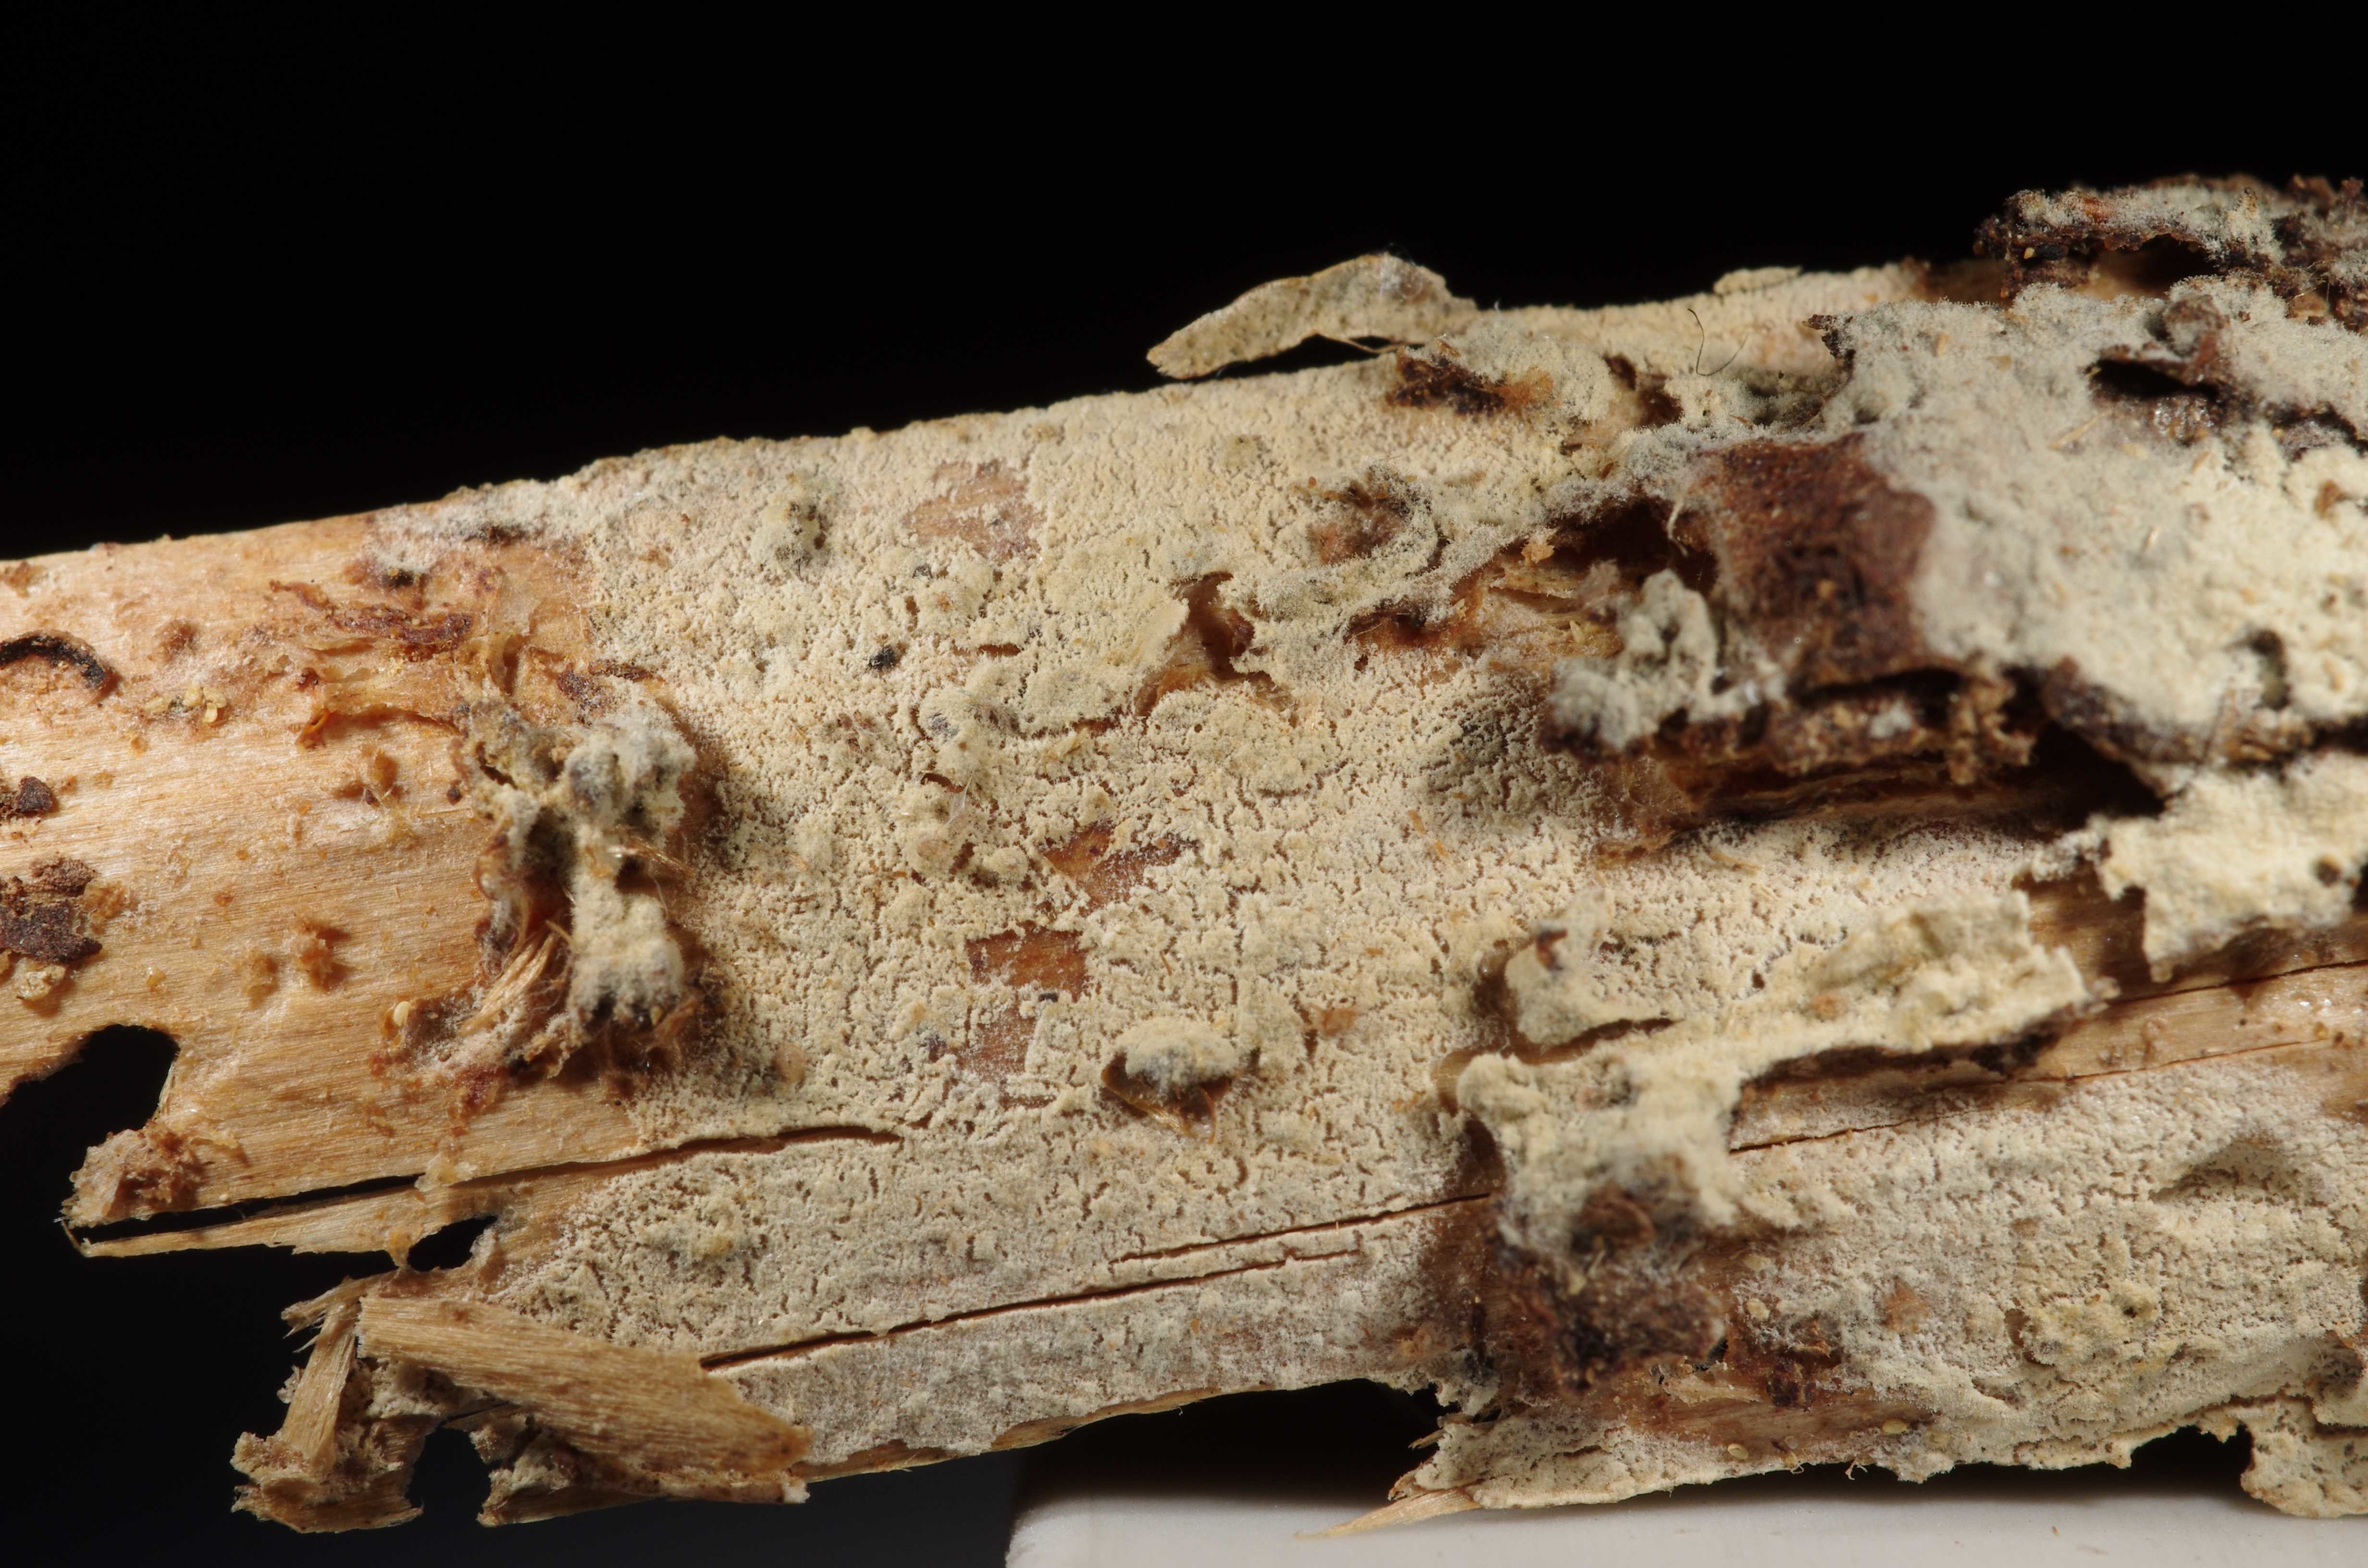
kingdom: Fungi
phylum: Basidiomycota
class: Agaricomycetes
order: Hymenochaetales
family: Hymenochaetaceae
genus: Tubulicrinis
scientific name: Tubulicrinis propinquus
